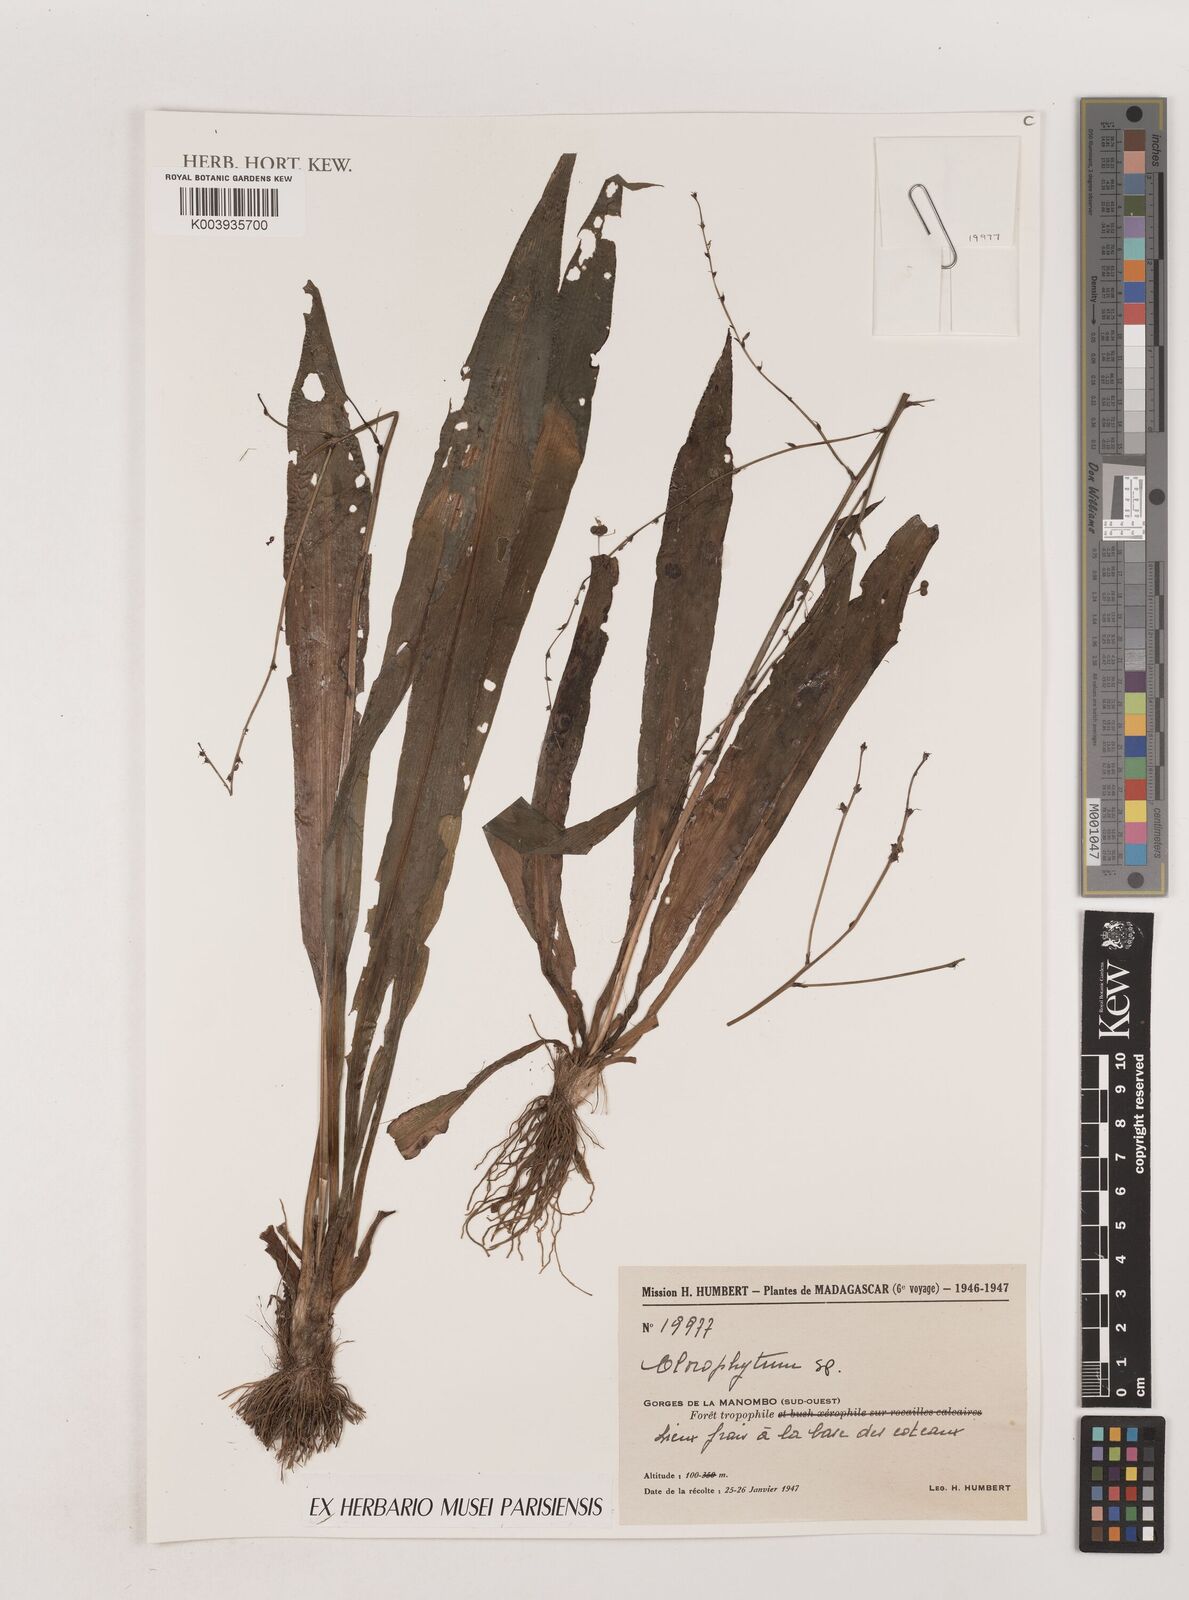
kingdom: Plantae
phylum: Tracheophyta
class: Liliopsida
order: Asparagales
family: Asparagaceae
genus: Chlorophytum
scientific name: Chlorophytum
